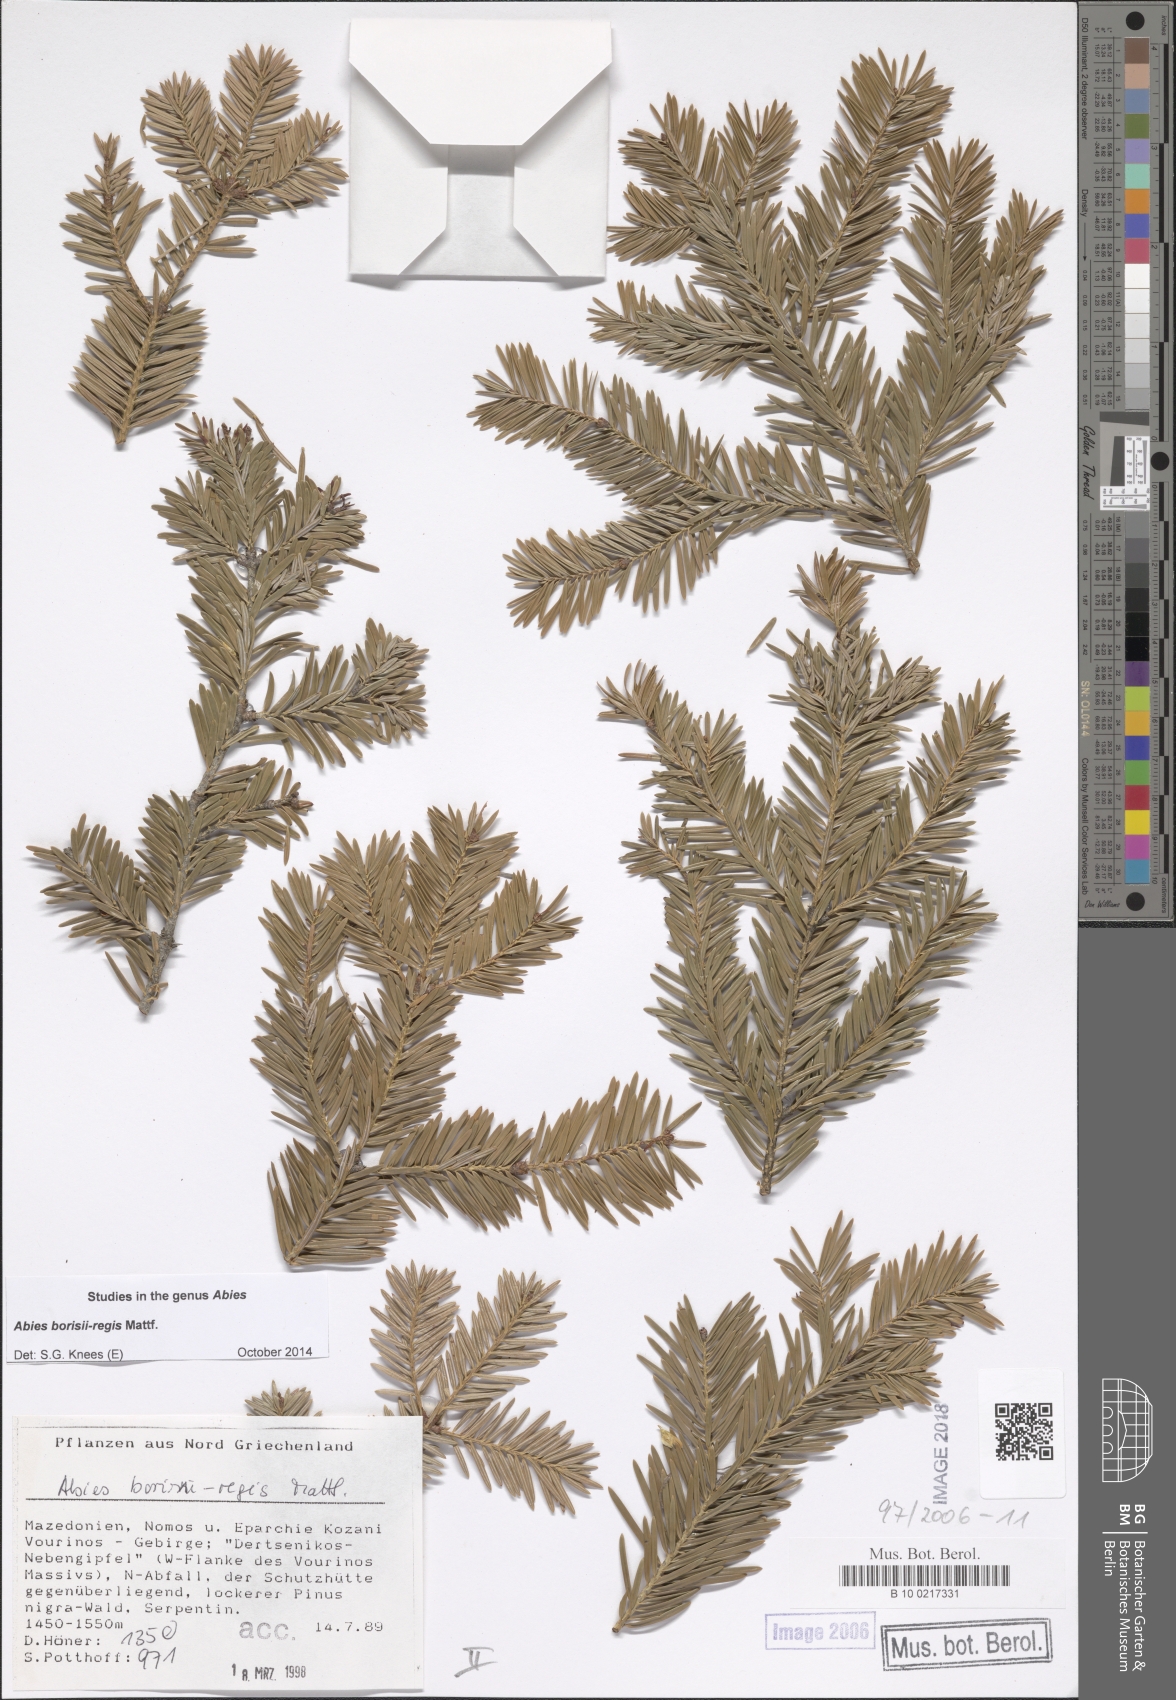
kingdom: Plantae
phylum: Tracheophyta
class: Pinopsida
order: Pinales
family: Pinaceae
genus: Abies
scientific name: Abies borisii-regis
